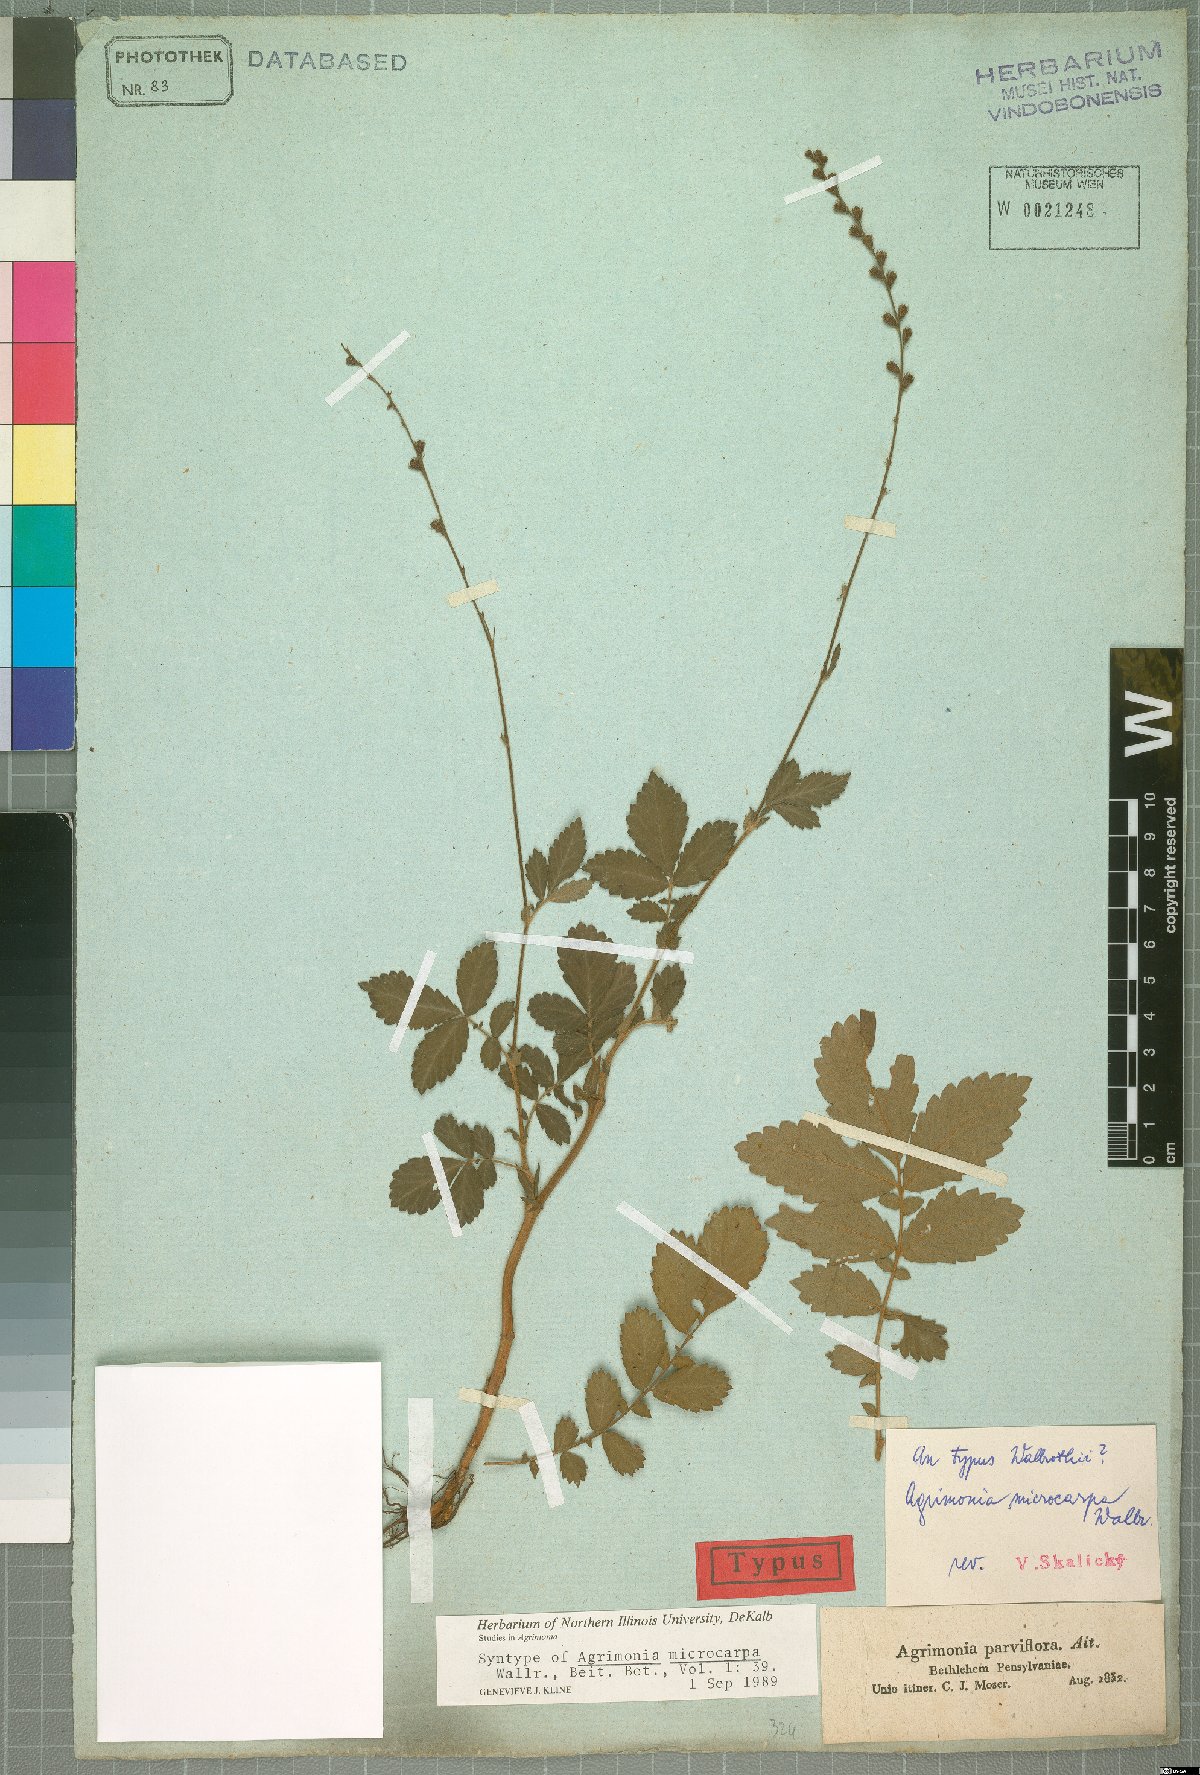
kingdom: Plantae
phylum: Tracheophyta
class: Magnoliopsida
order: Rosales
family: Rosaceae
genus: Agrimonia
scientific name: Agrimonia microcarpa
